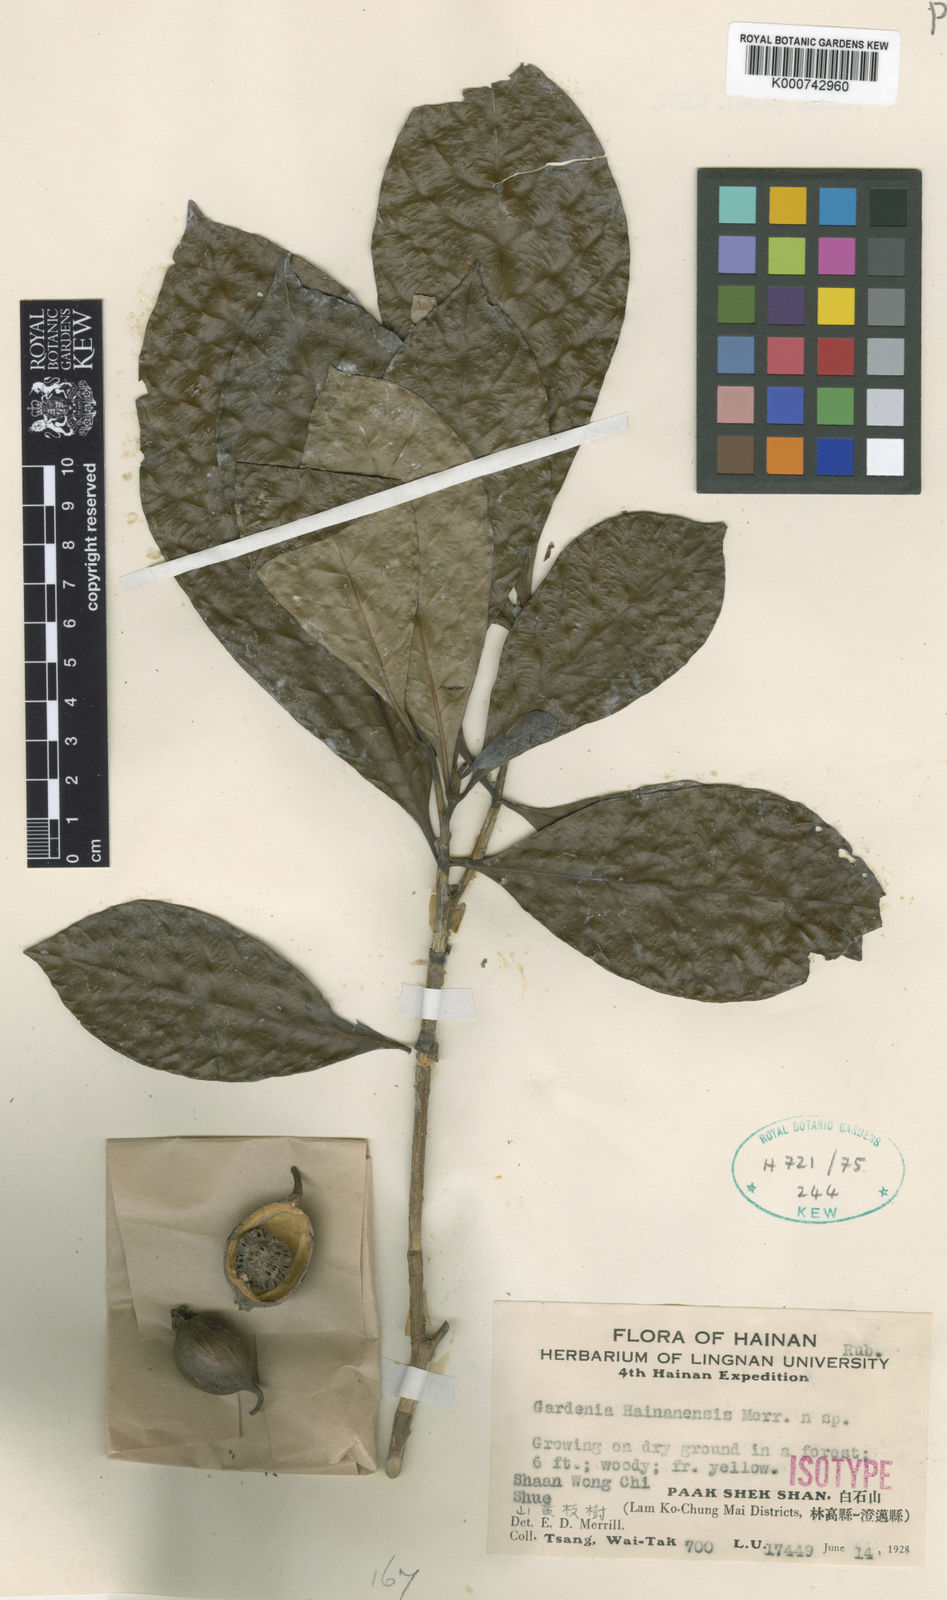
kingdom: Plantae
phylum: Tracheophyta
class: Magnoliopsida
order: Gentianales
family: Rubiaceae
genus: Gardenia
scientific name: Gardenia hainanensis
